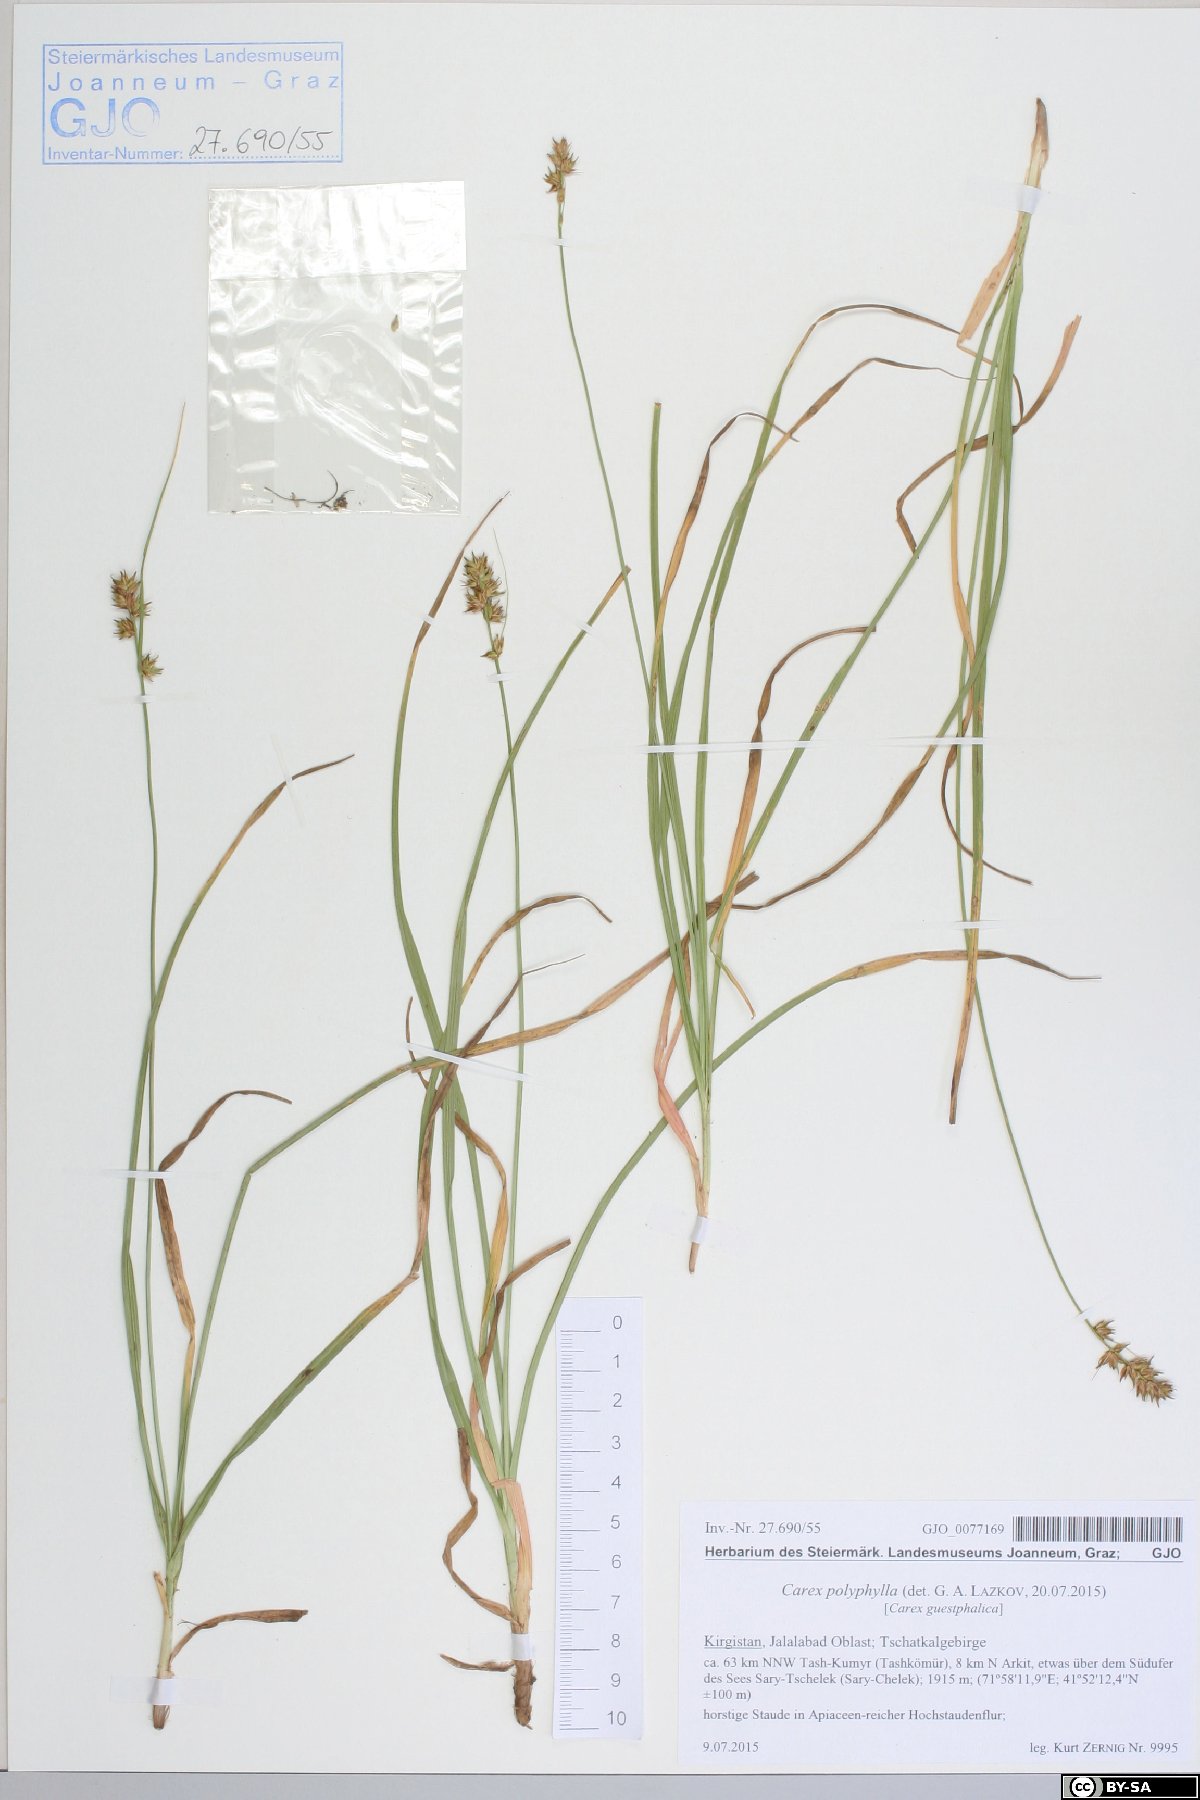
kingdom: Fungi
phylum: Basidiomycota
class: Agaricomycetes
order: Polyporales
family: Phanerochaetaceae
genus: Phanerochaete
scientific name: Phanerochaete laevis
